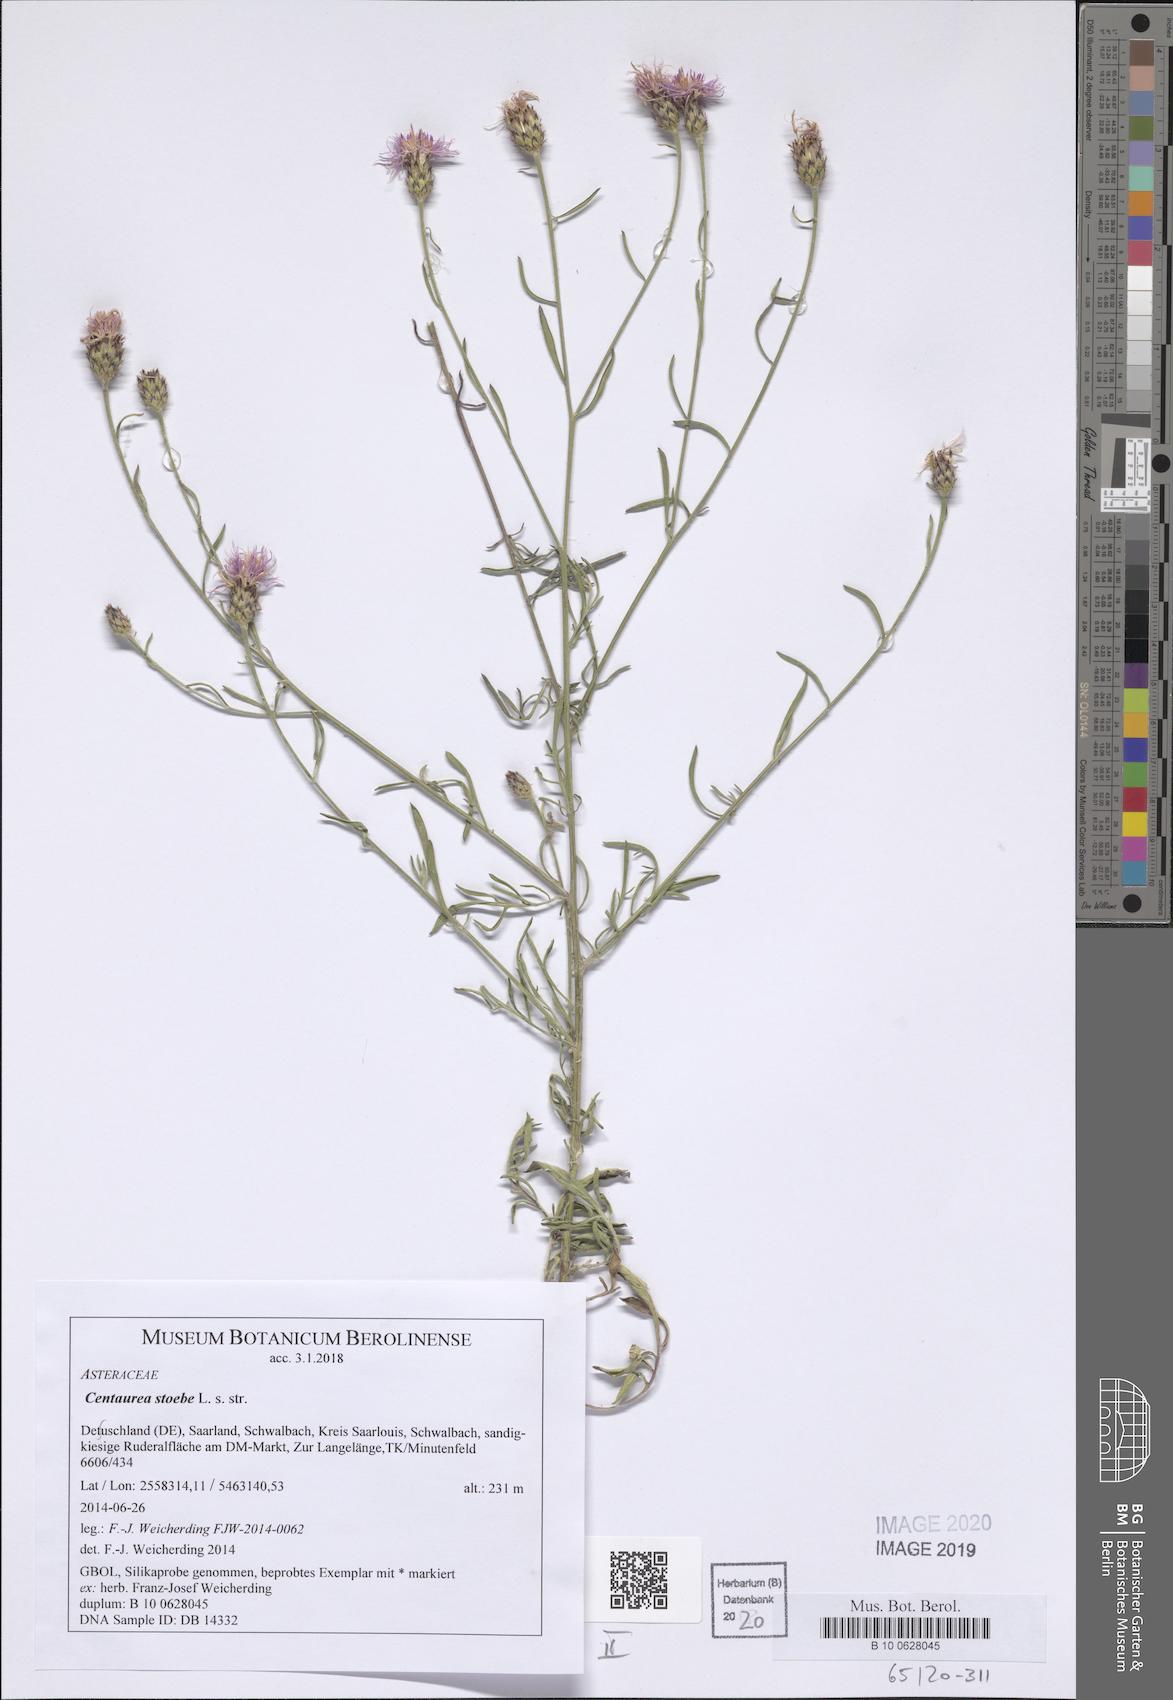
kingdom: Plantae
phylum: Tracheophyta
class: Magnoliopsida
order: Asterales
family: Asteraceae
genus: Centaurea
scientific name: Centaurea stoebe
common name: Spotted knapweed
